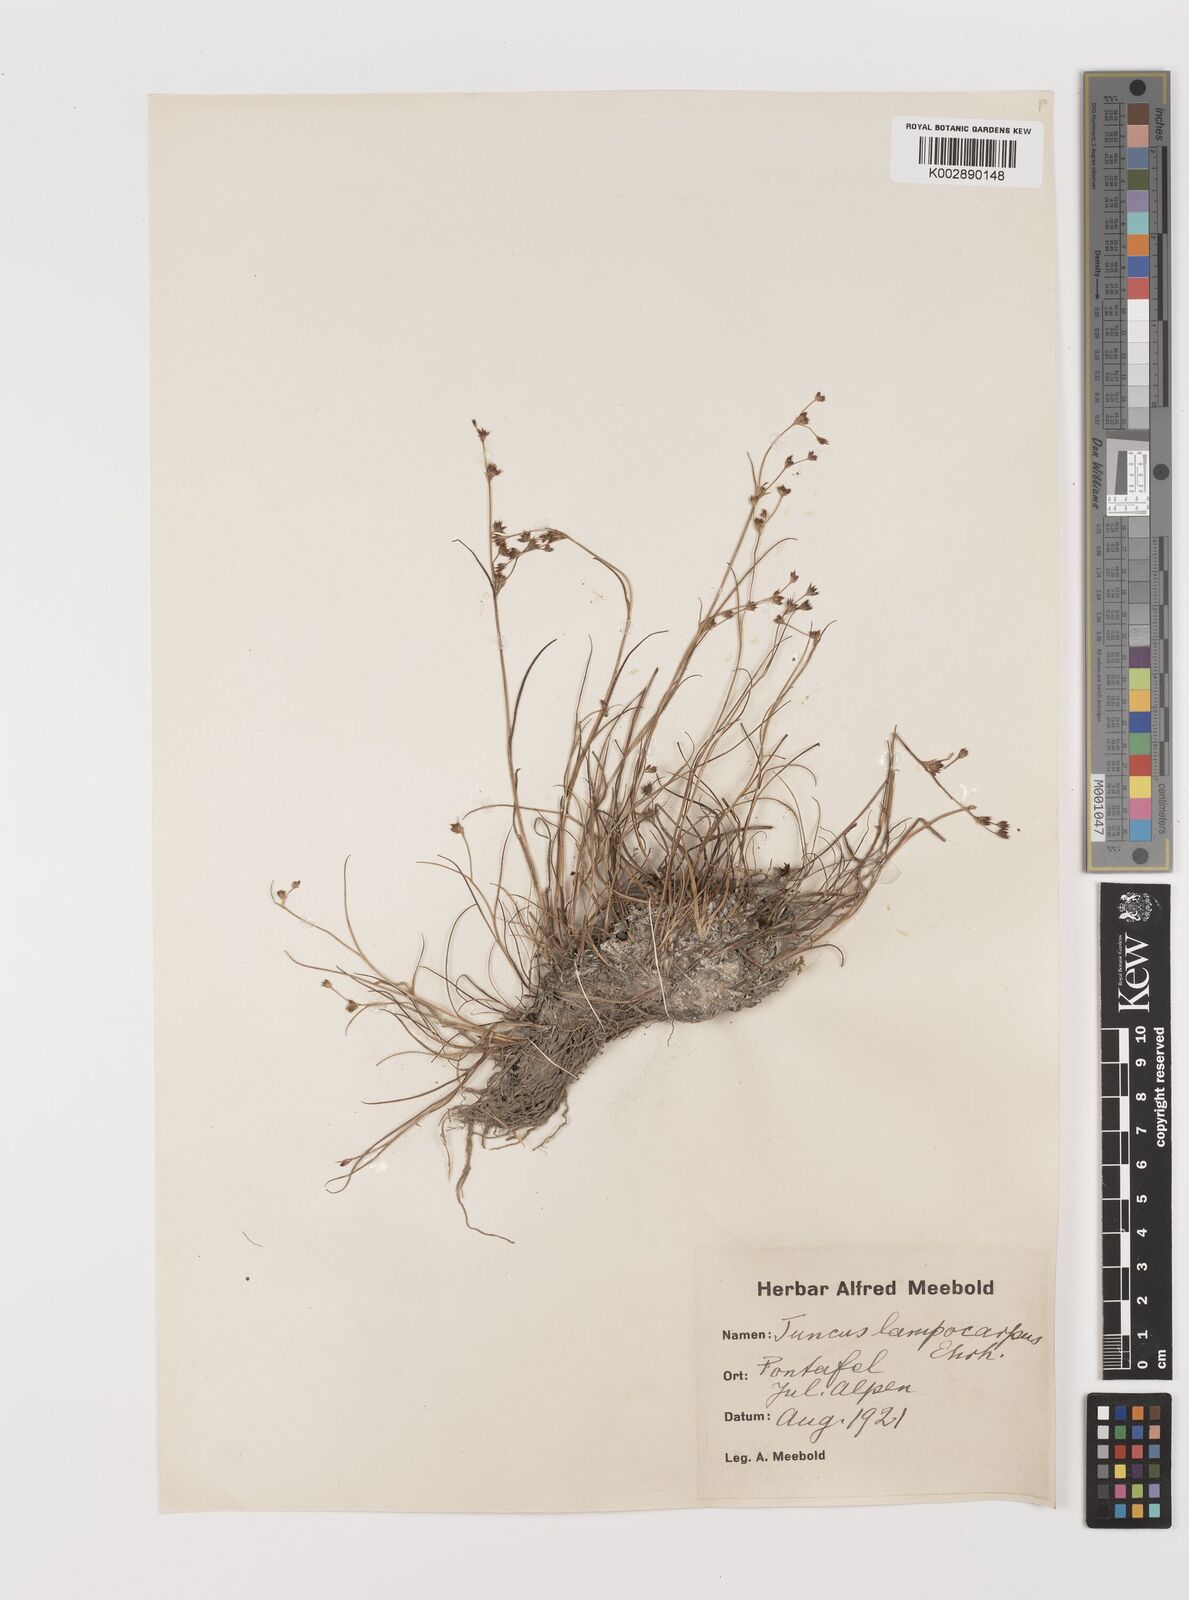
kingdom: Plantae
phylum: Tracheophyta
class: Liliopsida
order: Poales
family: Juncaceae
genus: Juncus
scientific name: Juncus articulatus
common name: Jointed rush
